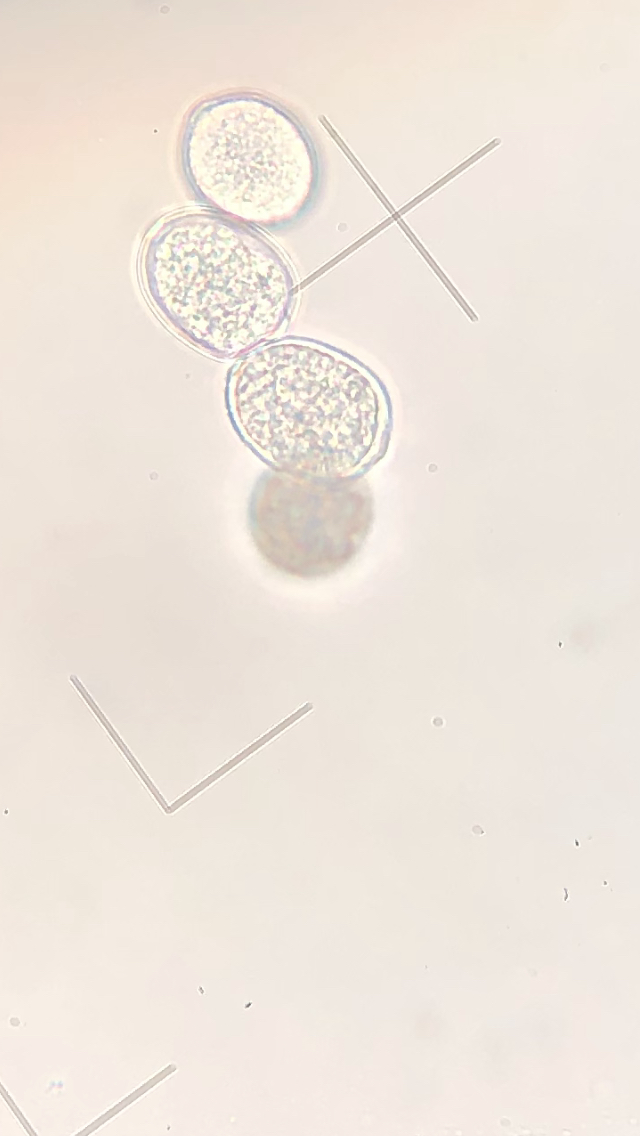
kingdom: Chromista
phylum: Oomycota
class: Peronosporea
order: Peronosporales
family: Peronosporaceae
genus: Plasmoverna
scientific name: Plasmoverna pygmaea
